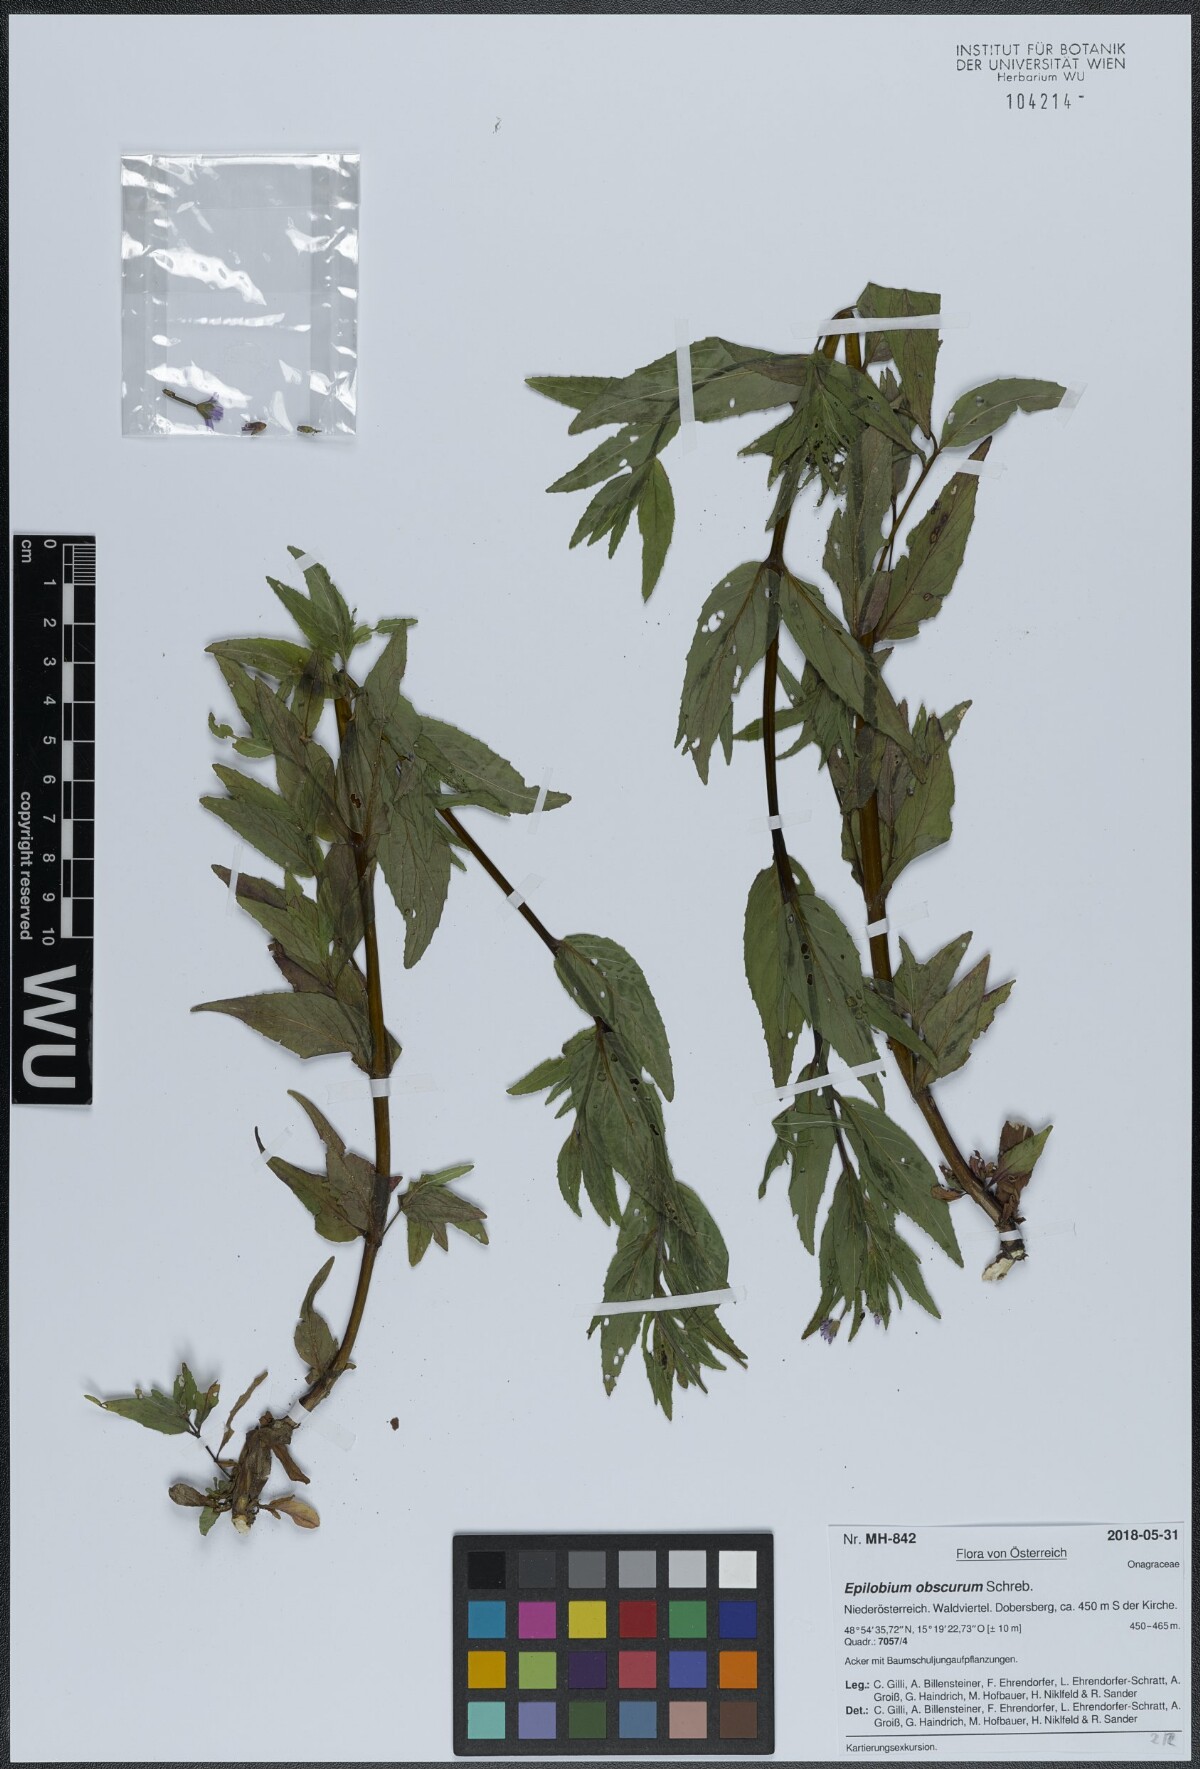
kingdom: Plantae
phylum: Tracheophyta
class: Magnoliopsida
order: Myrtales
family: Onagraceae
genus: Epilobium
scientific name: Epilobium obscurum
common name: Short-fruited willowherb
